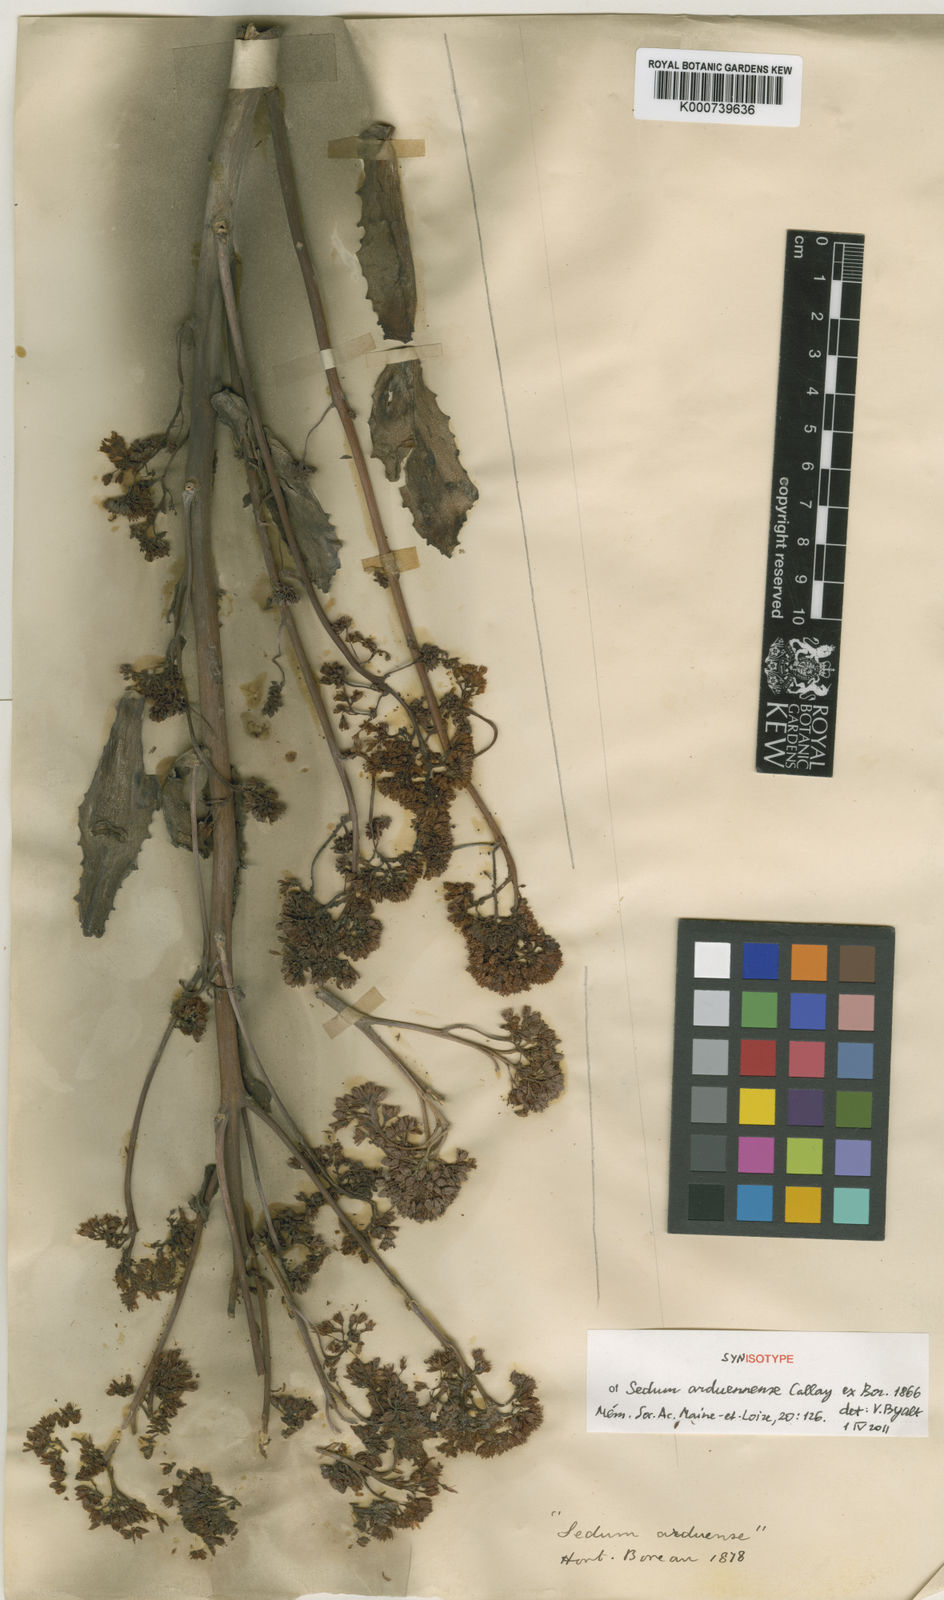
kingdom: Plantae
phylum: Tracheophyta
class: Magnoliopsida
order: Saxifragales
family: Crassulaceae
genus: Hylotelephium
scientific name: Hylotelephium telephium
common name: Live-forever
